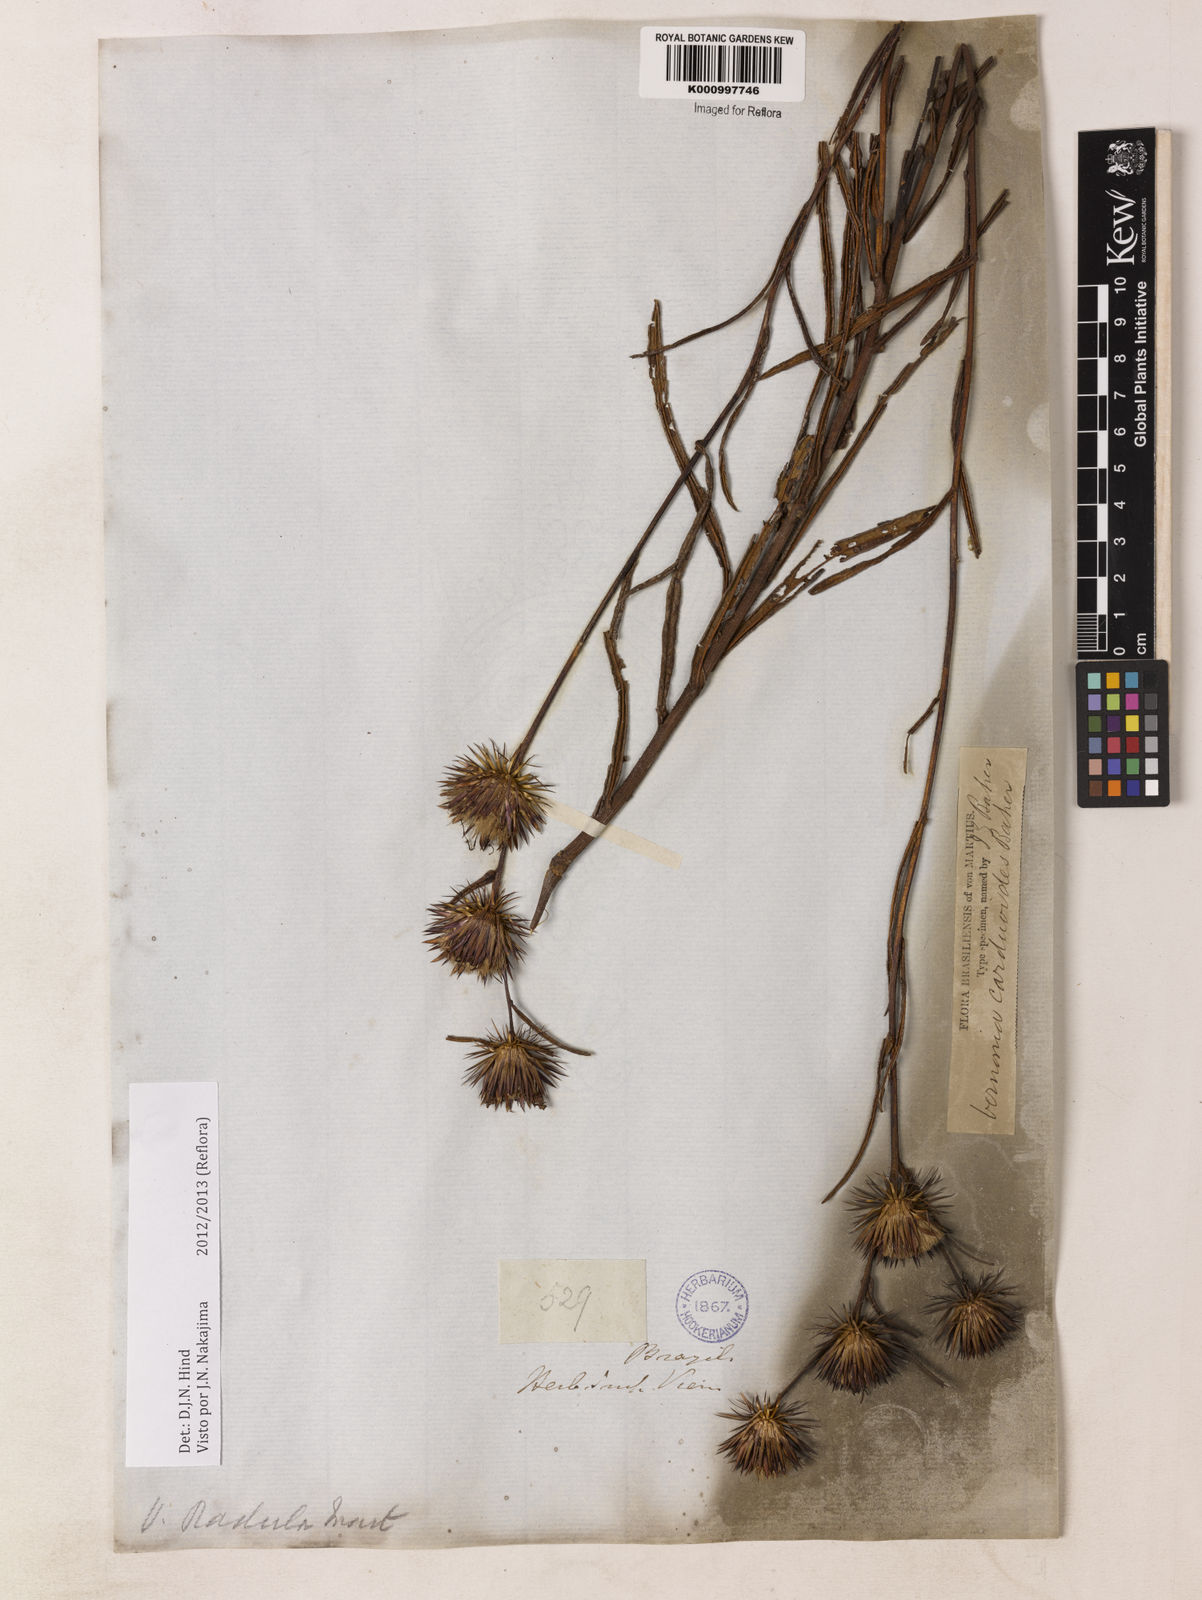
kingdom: Plantae
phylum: Tracheophyta
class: Magnoliopsida
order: Asterales
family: Asteraceae
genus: Lessingianthus
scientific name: Lessingianthus carduoides
